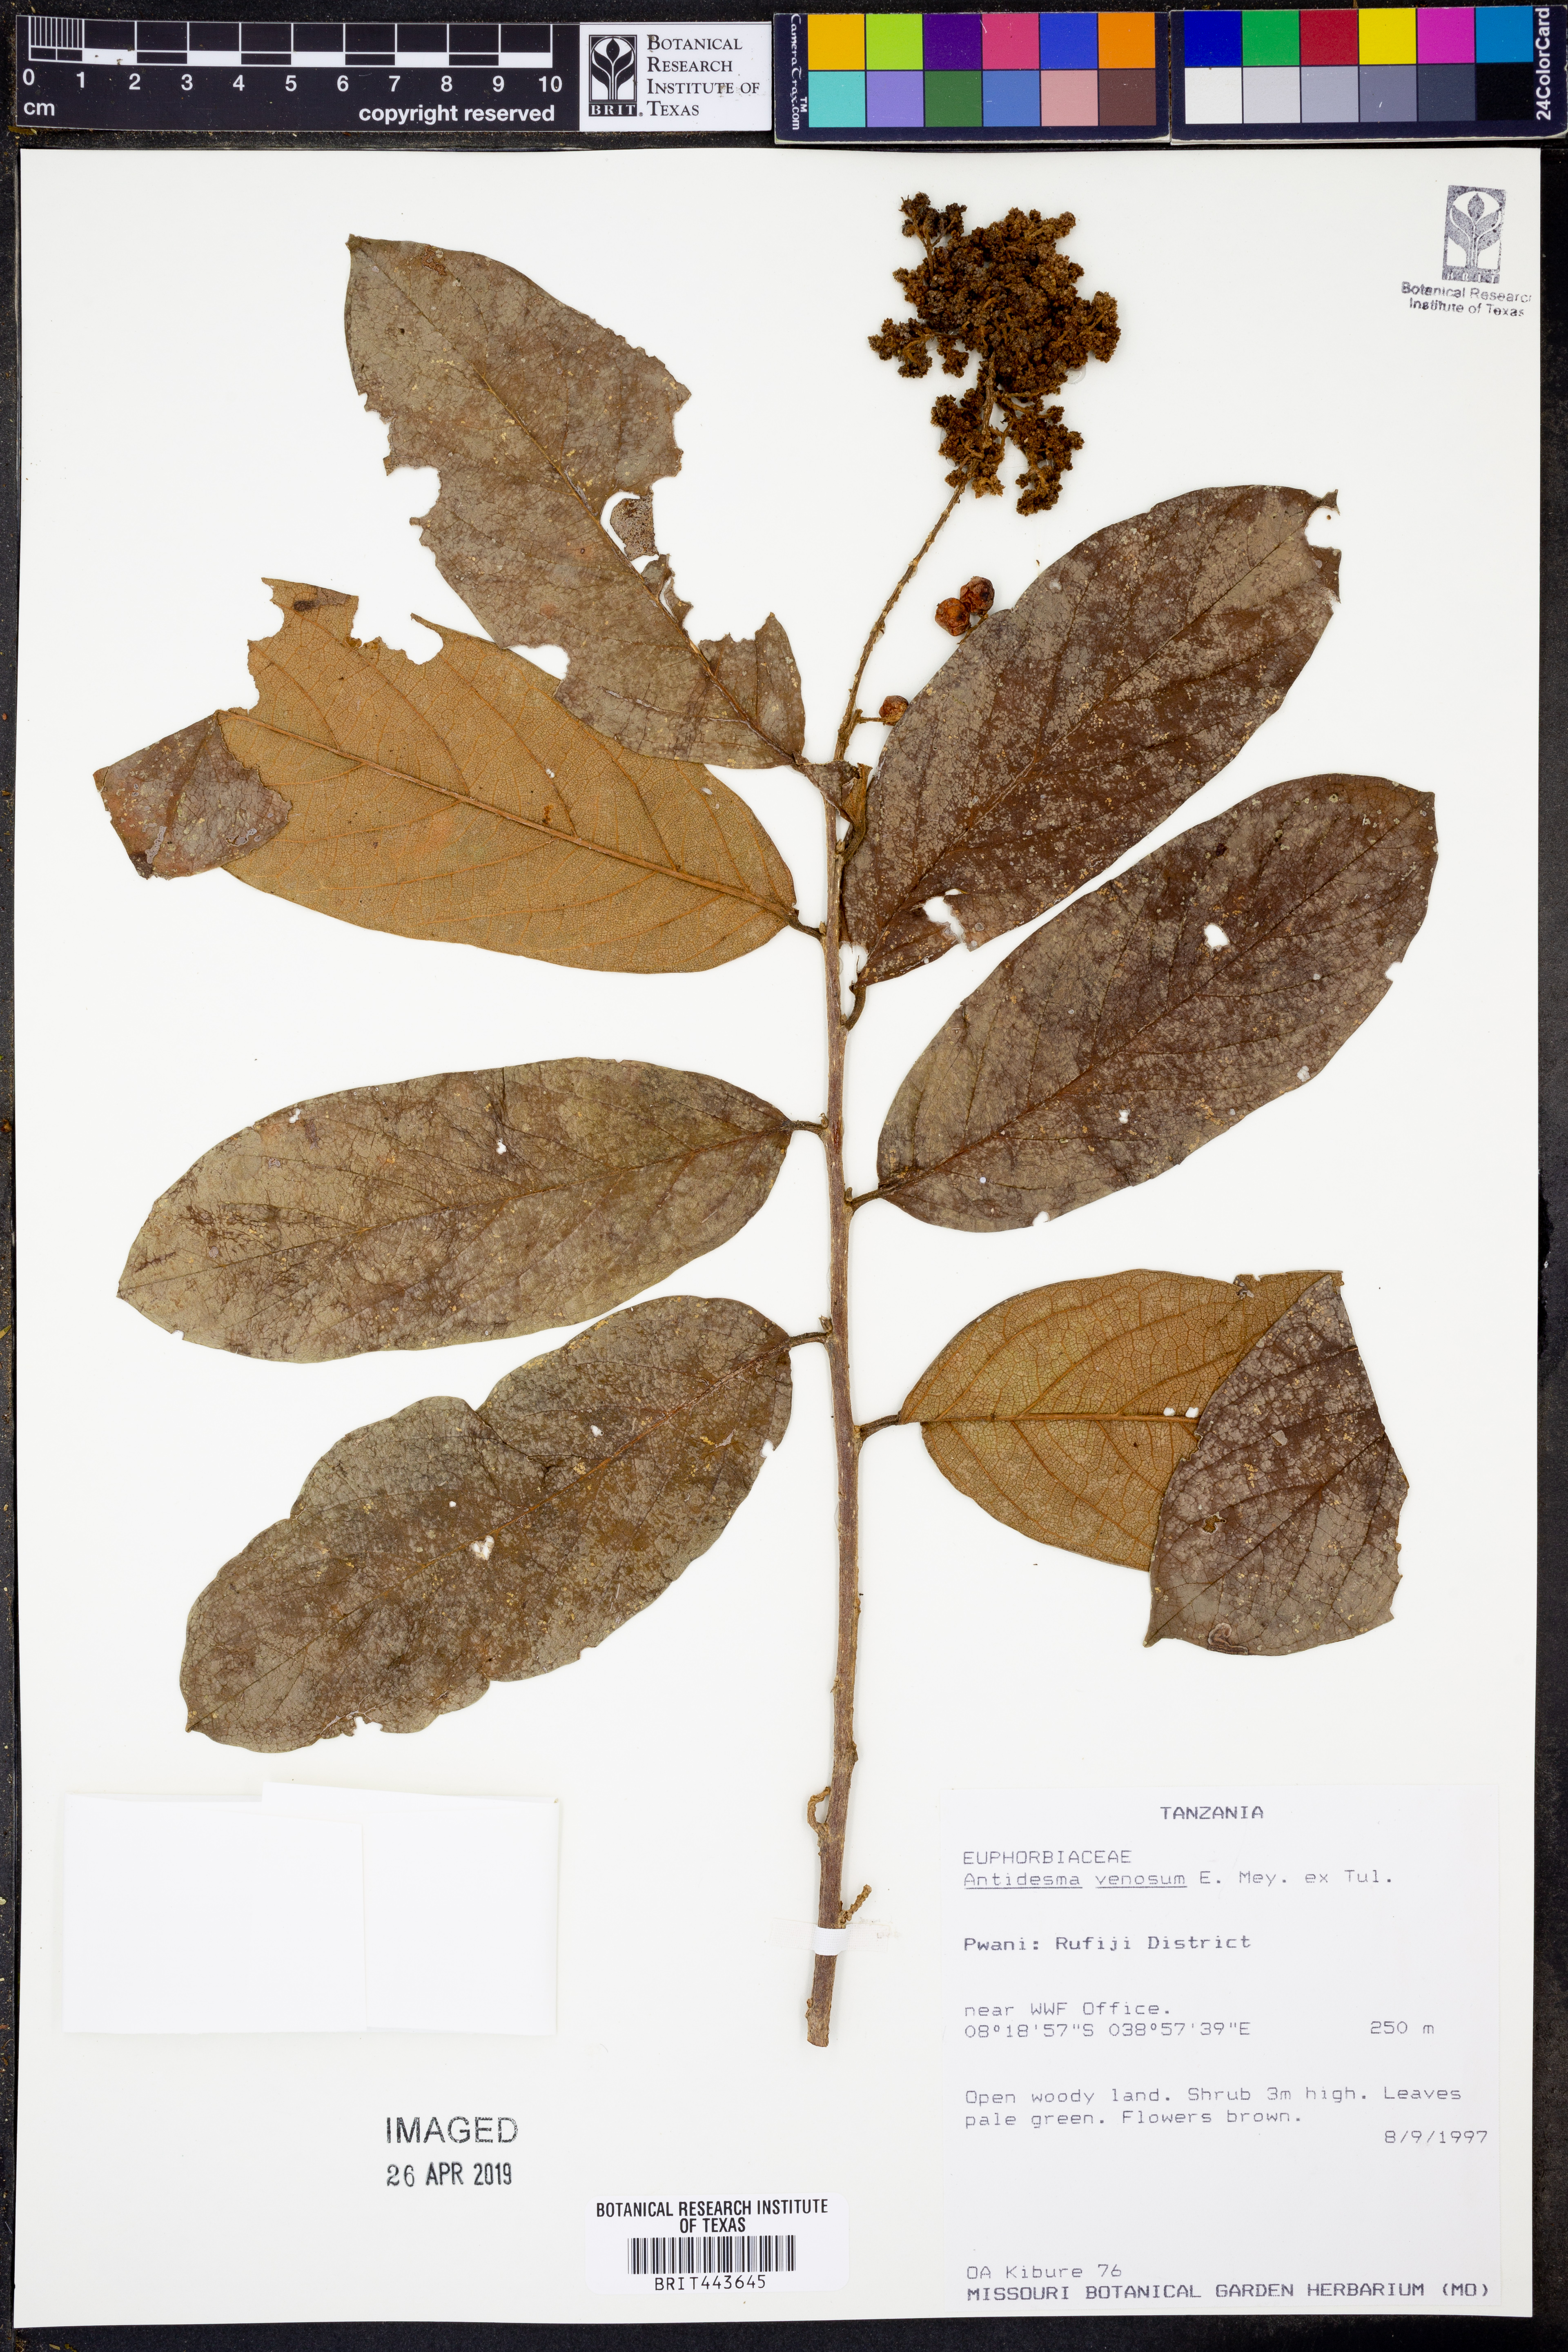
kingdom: Plantae
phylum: Tracheophyta
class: Magnoliopsida
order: Malpighiales
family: Phyllanthaceae
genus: Antidesma
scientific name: Antidesma venosum
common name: Tassel-berry
